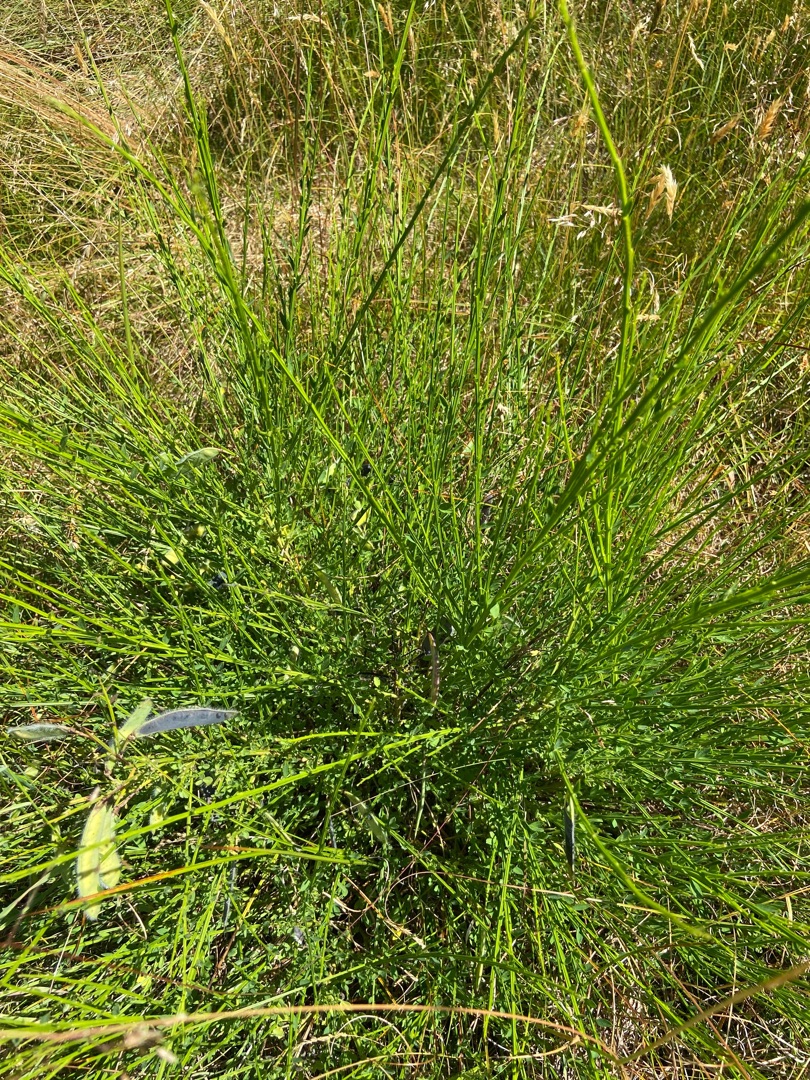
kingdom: Plantae
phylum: Tracheophyta
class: Magnoliopsida
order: Fabales
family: Fabaceae
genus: Cytisus
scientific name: Cytisus scoparius
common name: Almindelig gyvel
